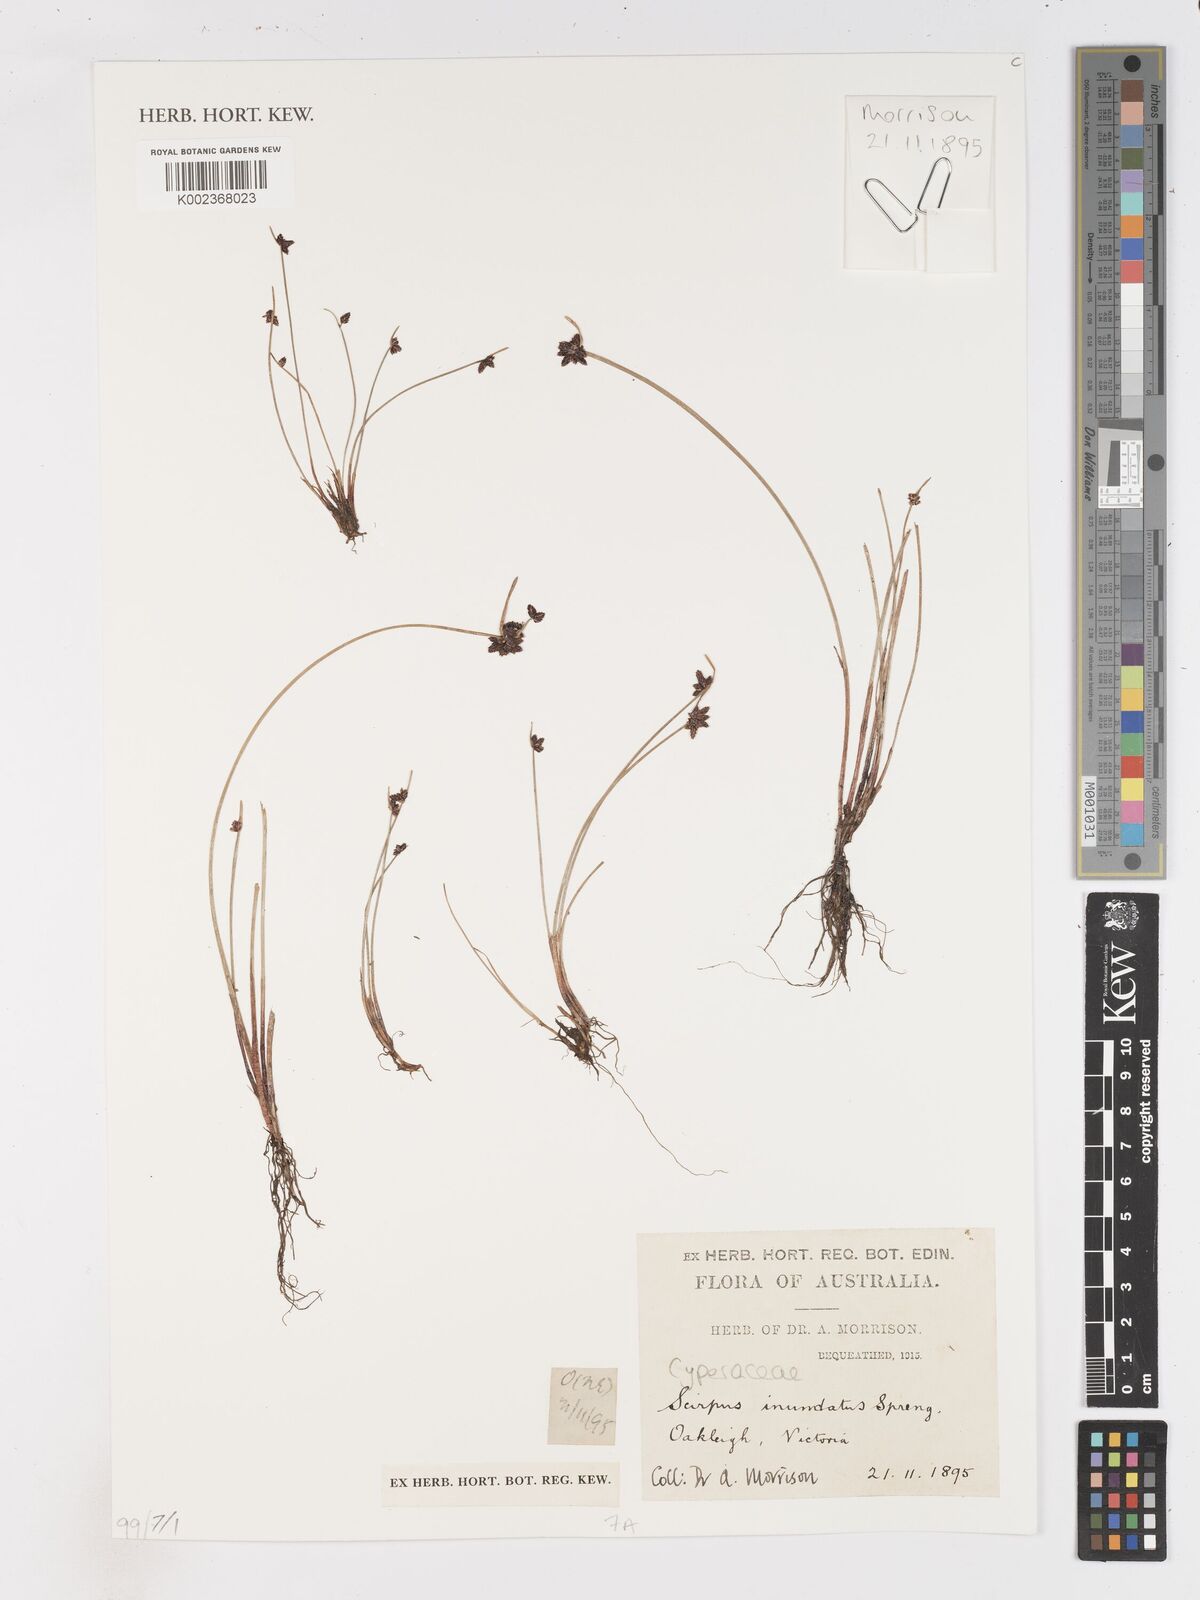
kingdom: Plantae
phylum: Tracheophyta
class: Liliopsida
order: Poales
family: Cyperaceae
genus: Isolepis
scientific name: Isolepis inundata
